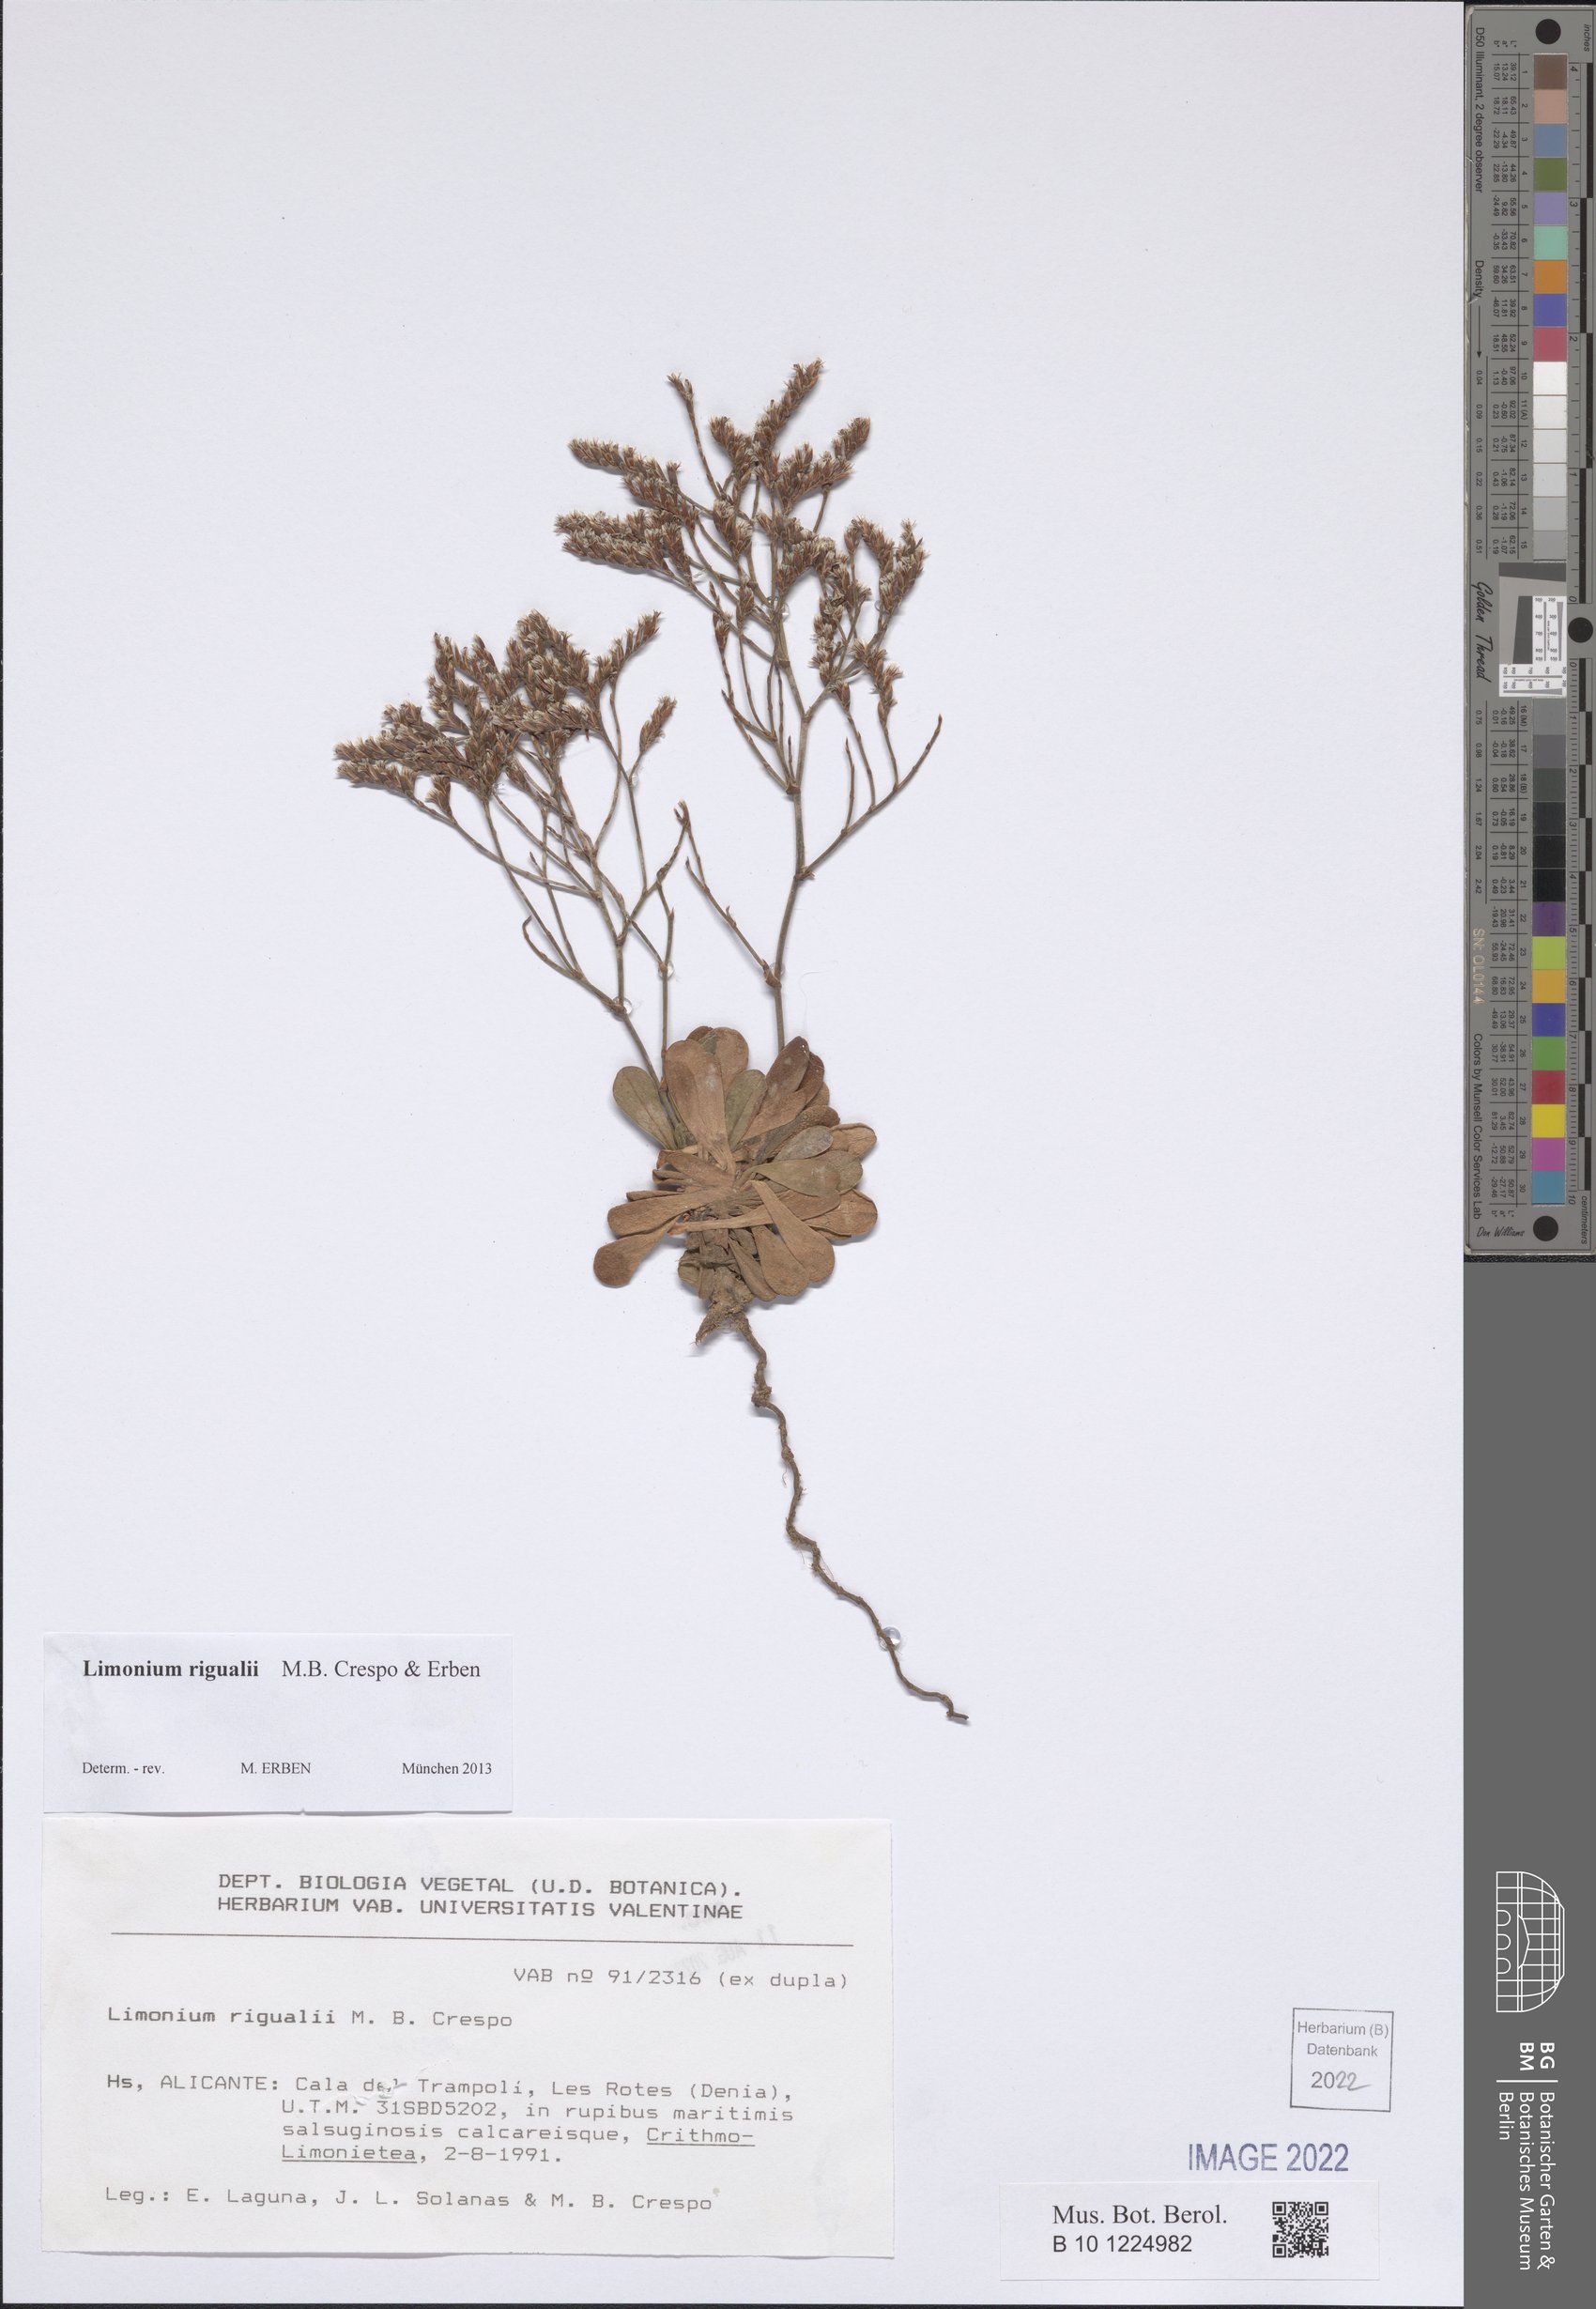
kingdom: Plantae
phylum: Tracheophyta
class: Magnoliopsida
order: Caryophyllales
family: Plumbaginaceae
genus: Limonium
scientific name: Limonium rigualii
